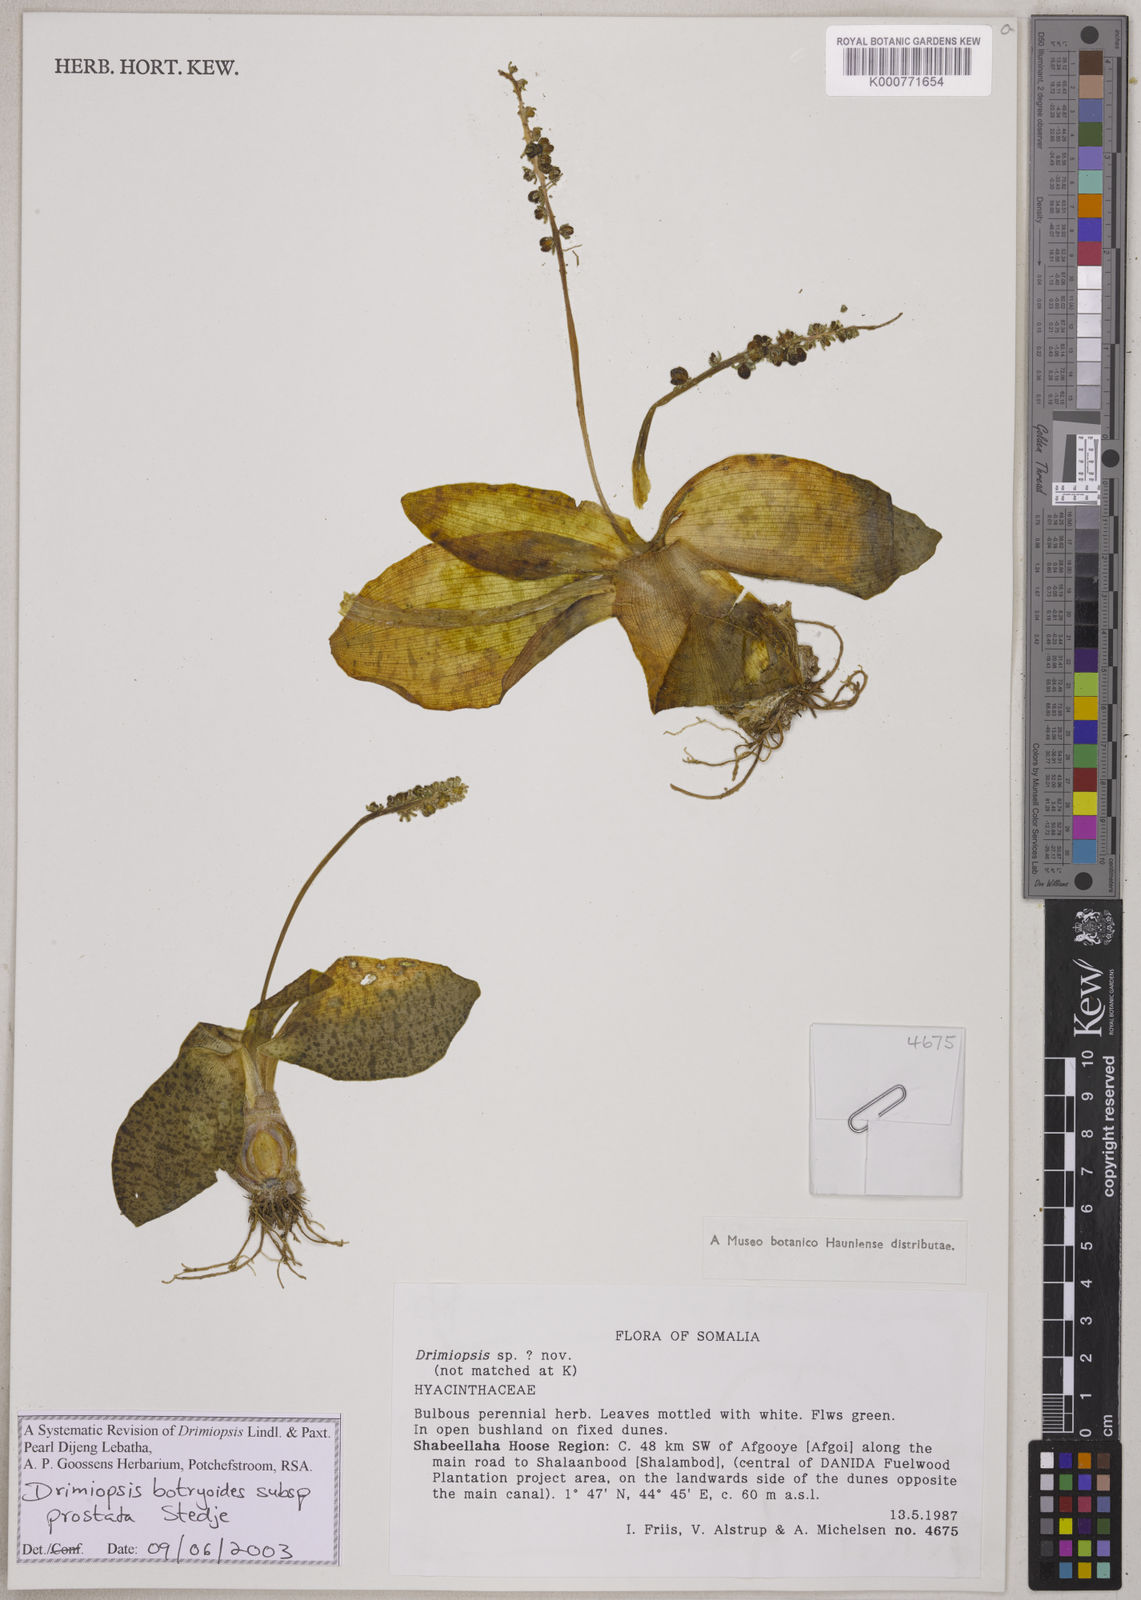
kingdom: Plantae
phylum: Tracheophyta
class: Liliopsida
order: Asparagales
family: Asparagaceae
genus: Drimiopsis
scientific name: Drimiopsis botryoides
